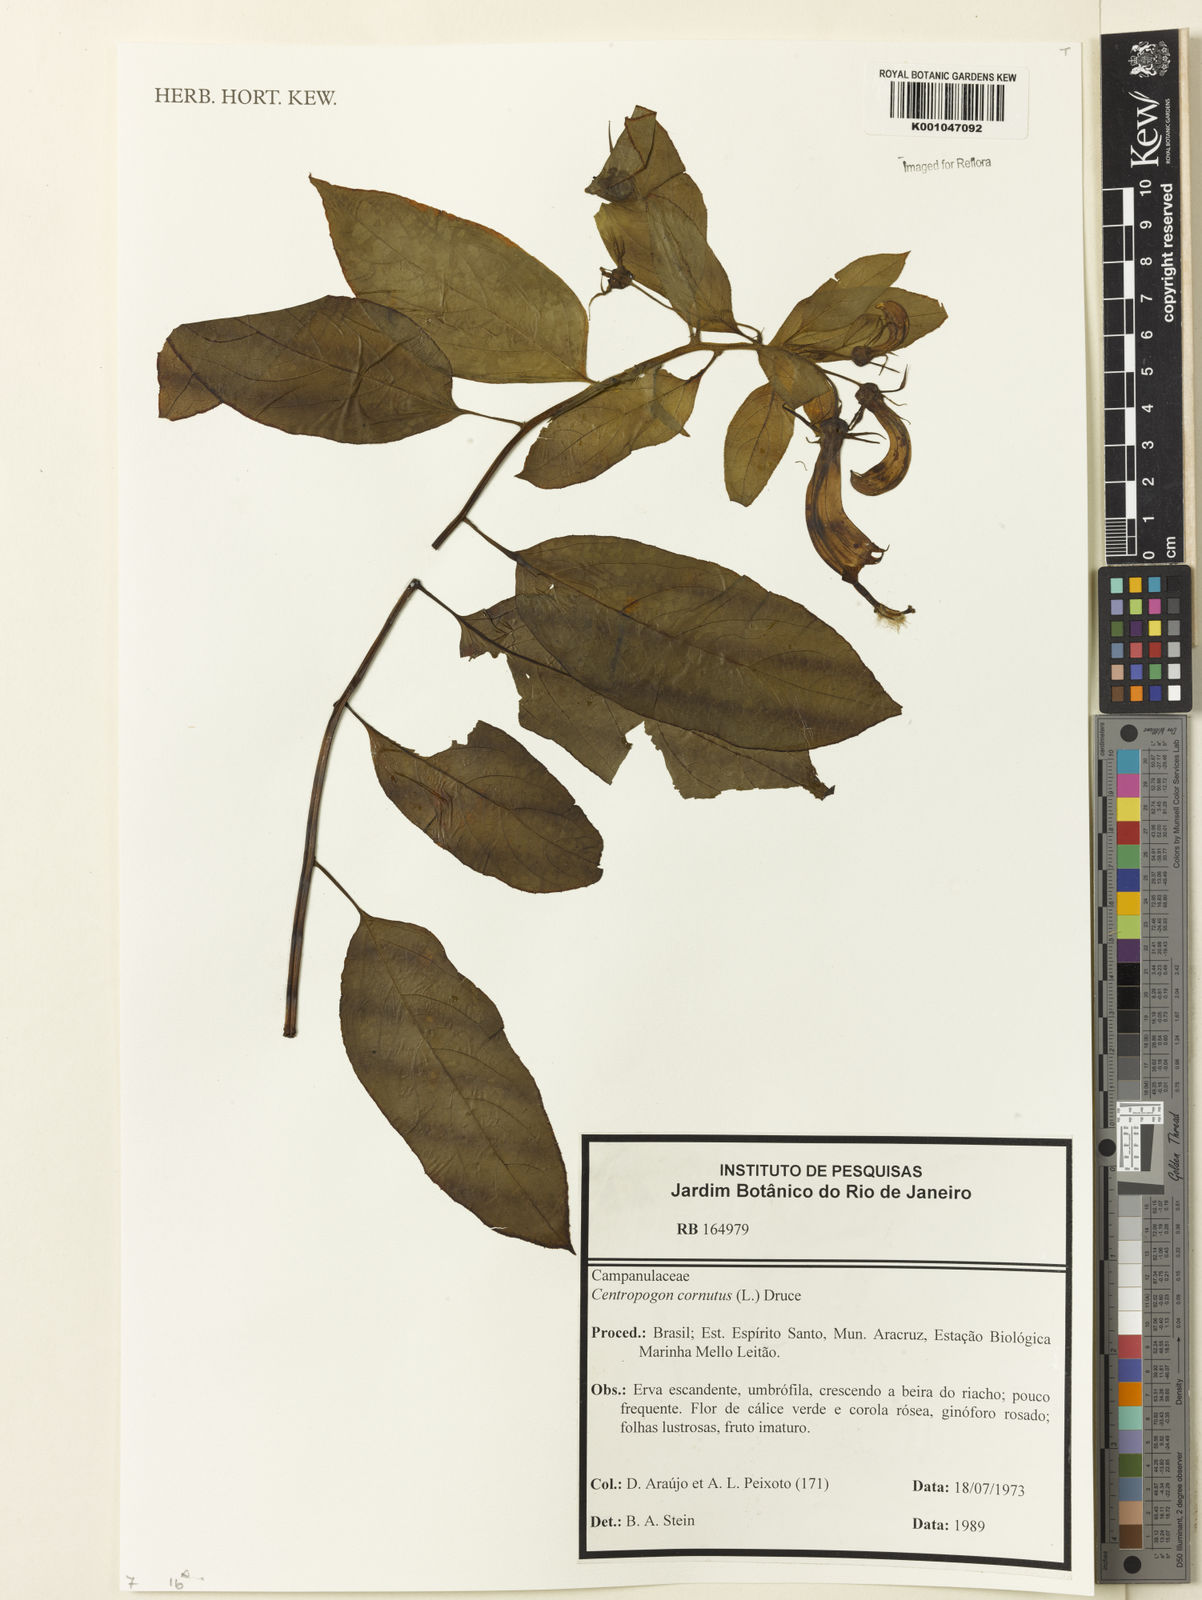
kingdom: Plantae
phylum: Tracheophyta
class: Magnoliopsida
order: Asterales
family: Campanulaceae
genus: Centropogon
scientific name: Centropogon cornutus
